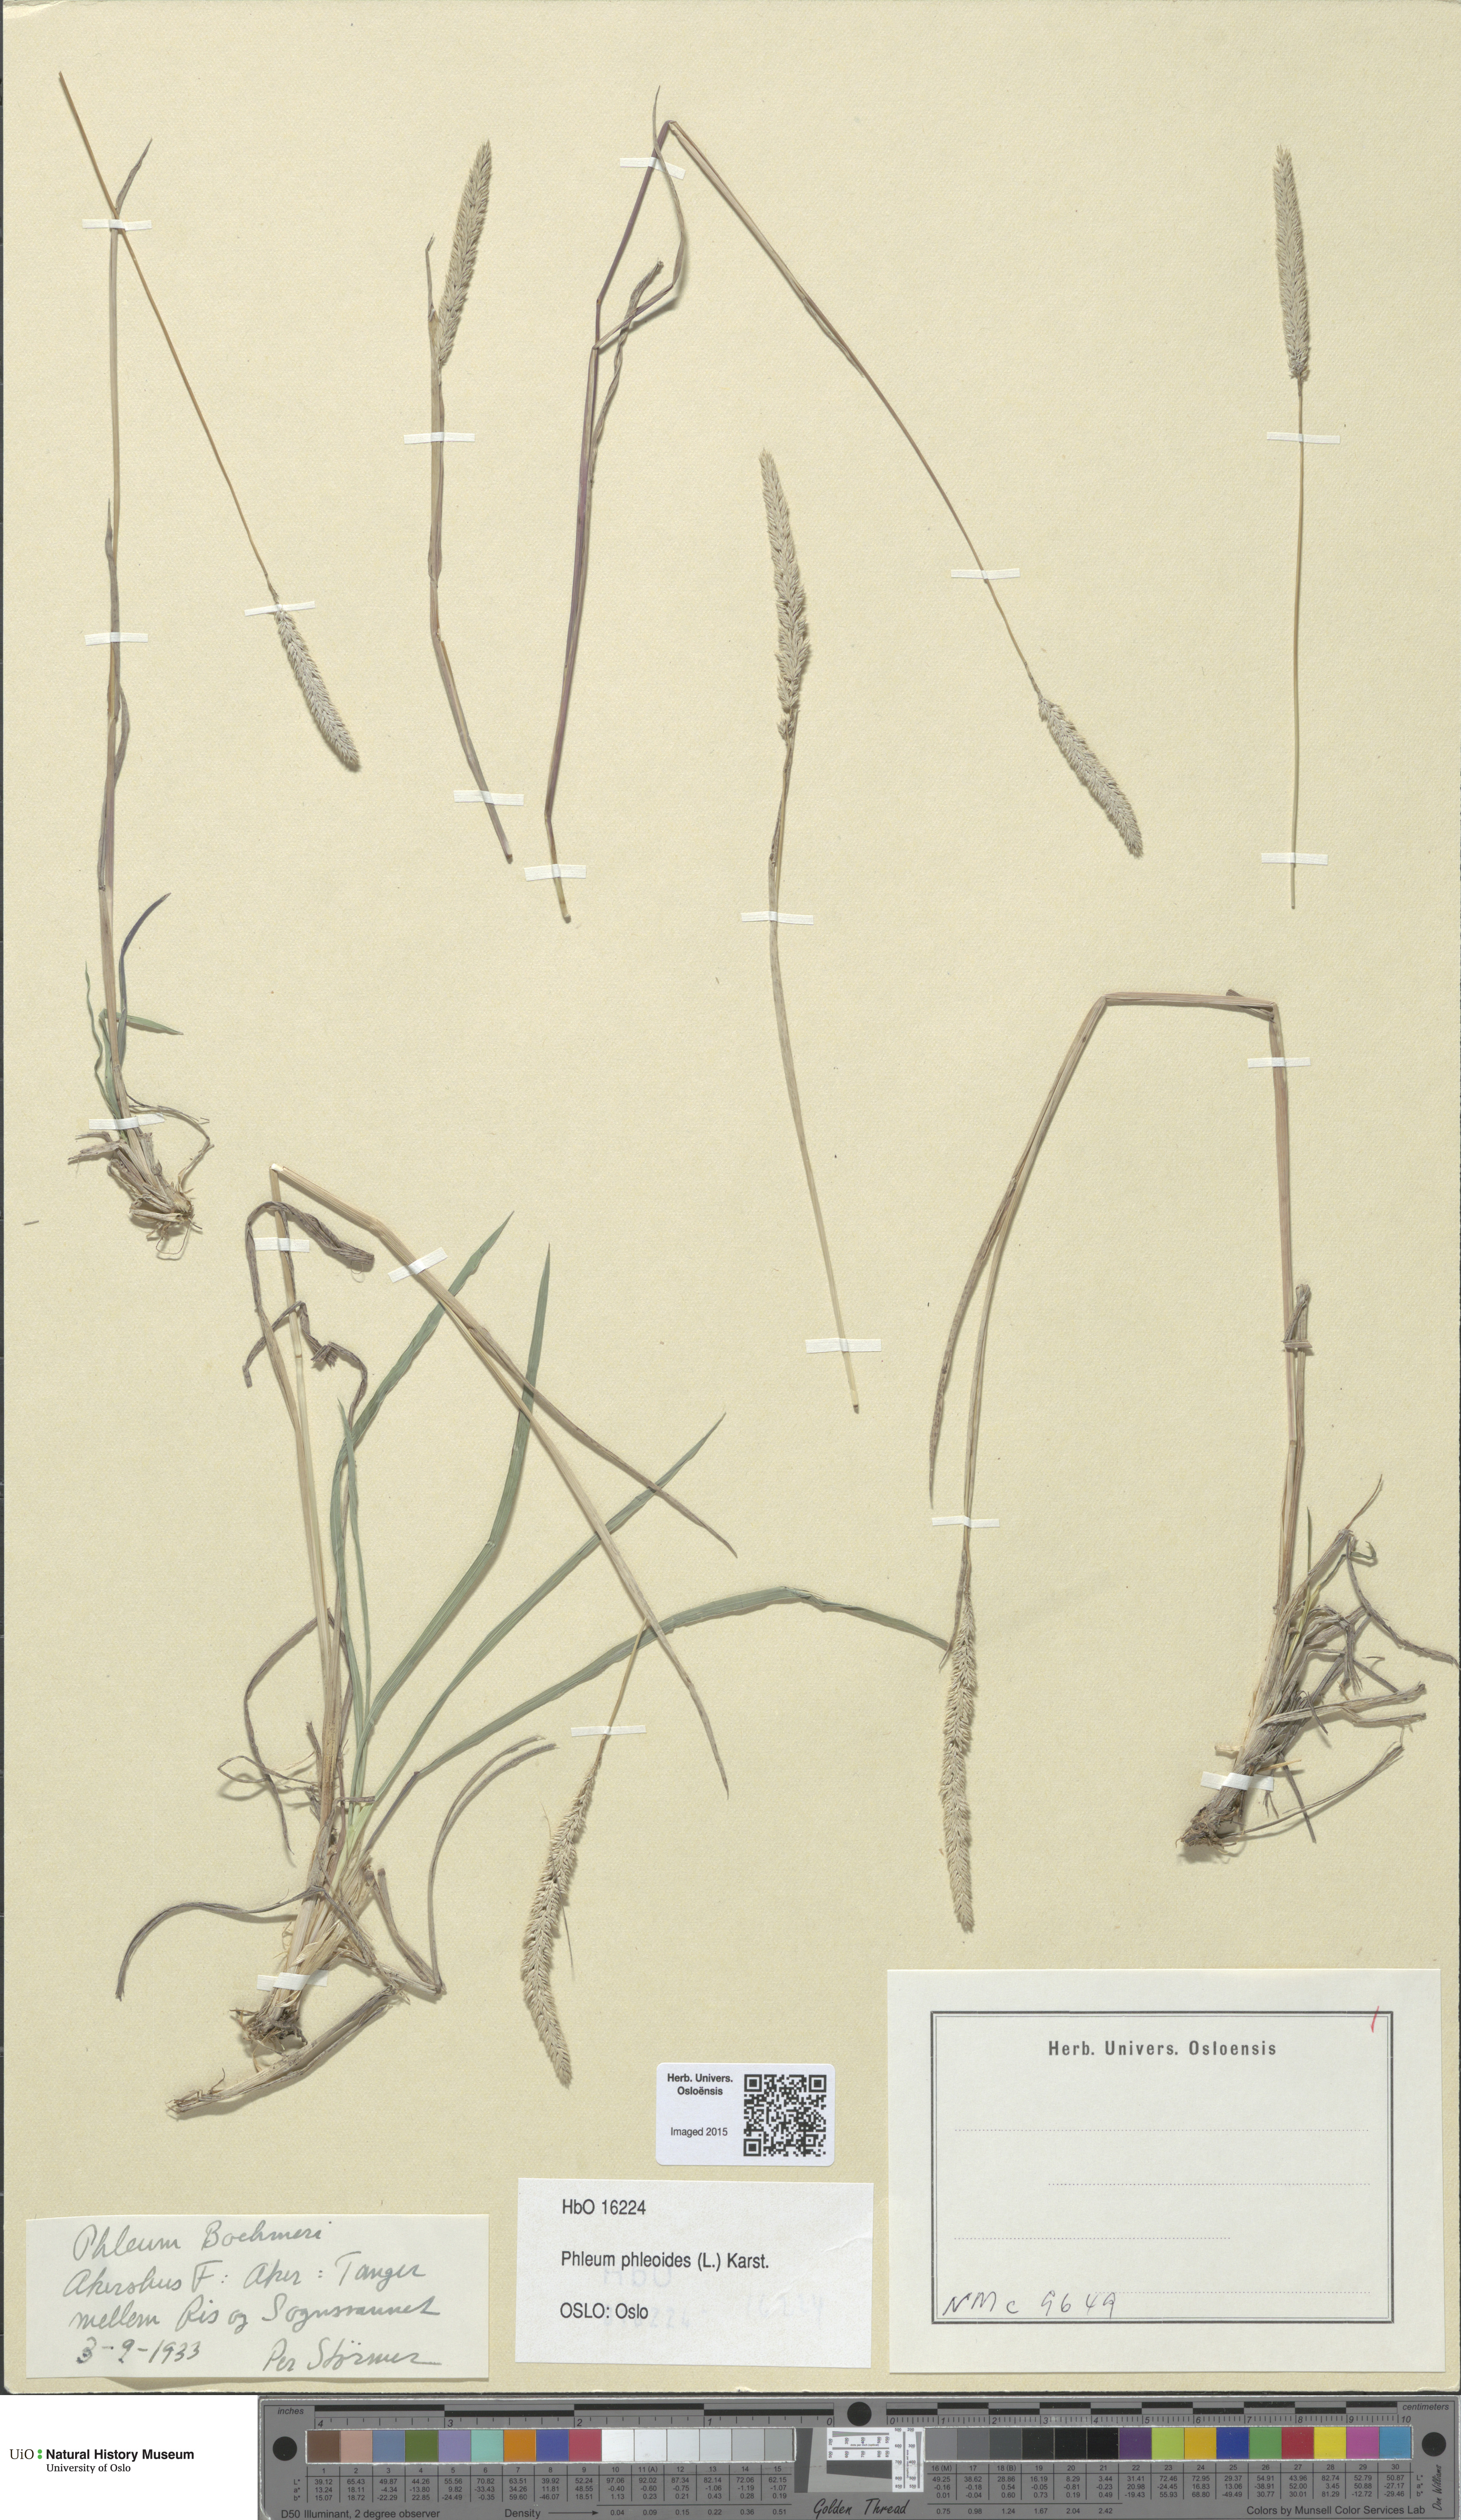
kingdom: Plantae
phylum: Tracheophyta
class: Liliopsida
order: Poales
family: Poaceae
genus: Phleum
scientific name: Phleum phleoides
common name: Purple-stem cat's-tail
